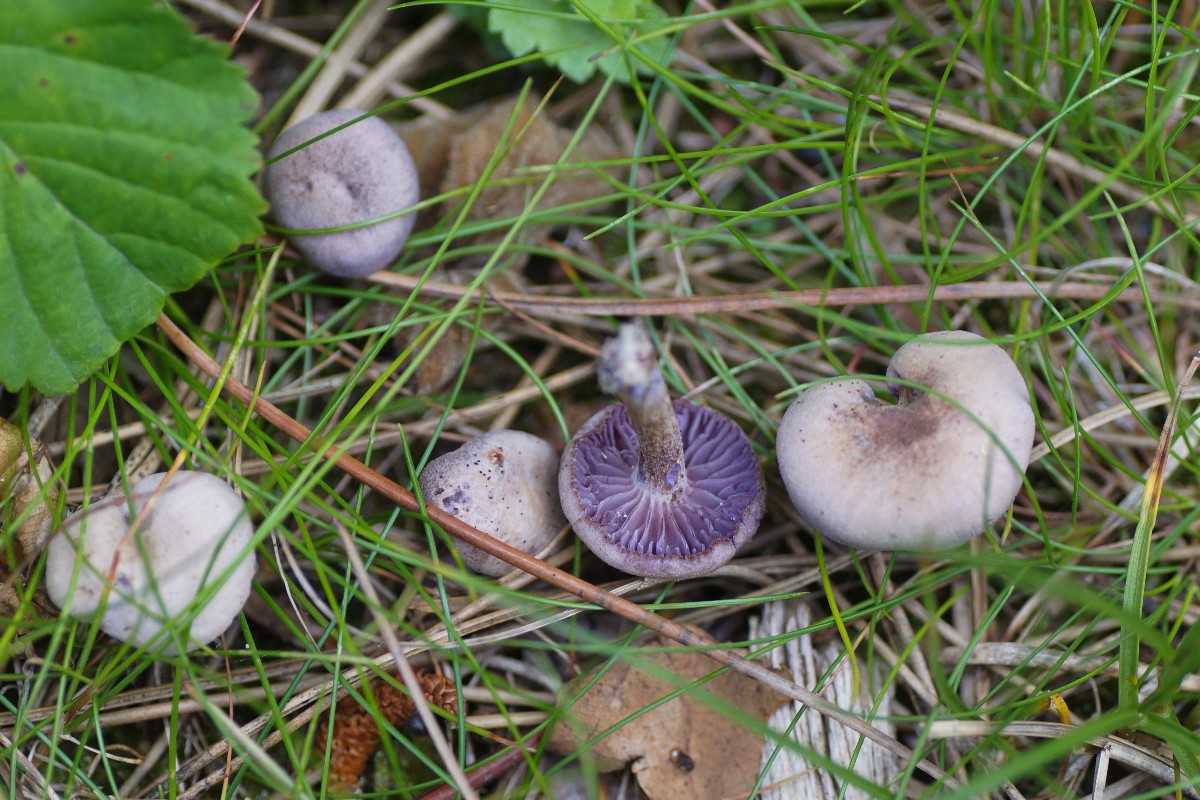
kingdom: Fungi
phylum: Basidiomycota
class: Agaricomycetes
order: Agaricales
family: Hydnangiaceae
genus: Laccaria
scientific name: Laccaria amethystina
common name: violet ametysthat
